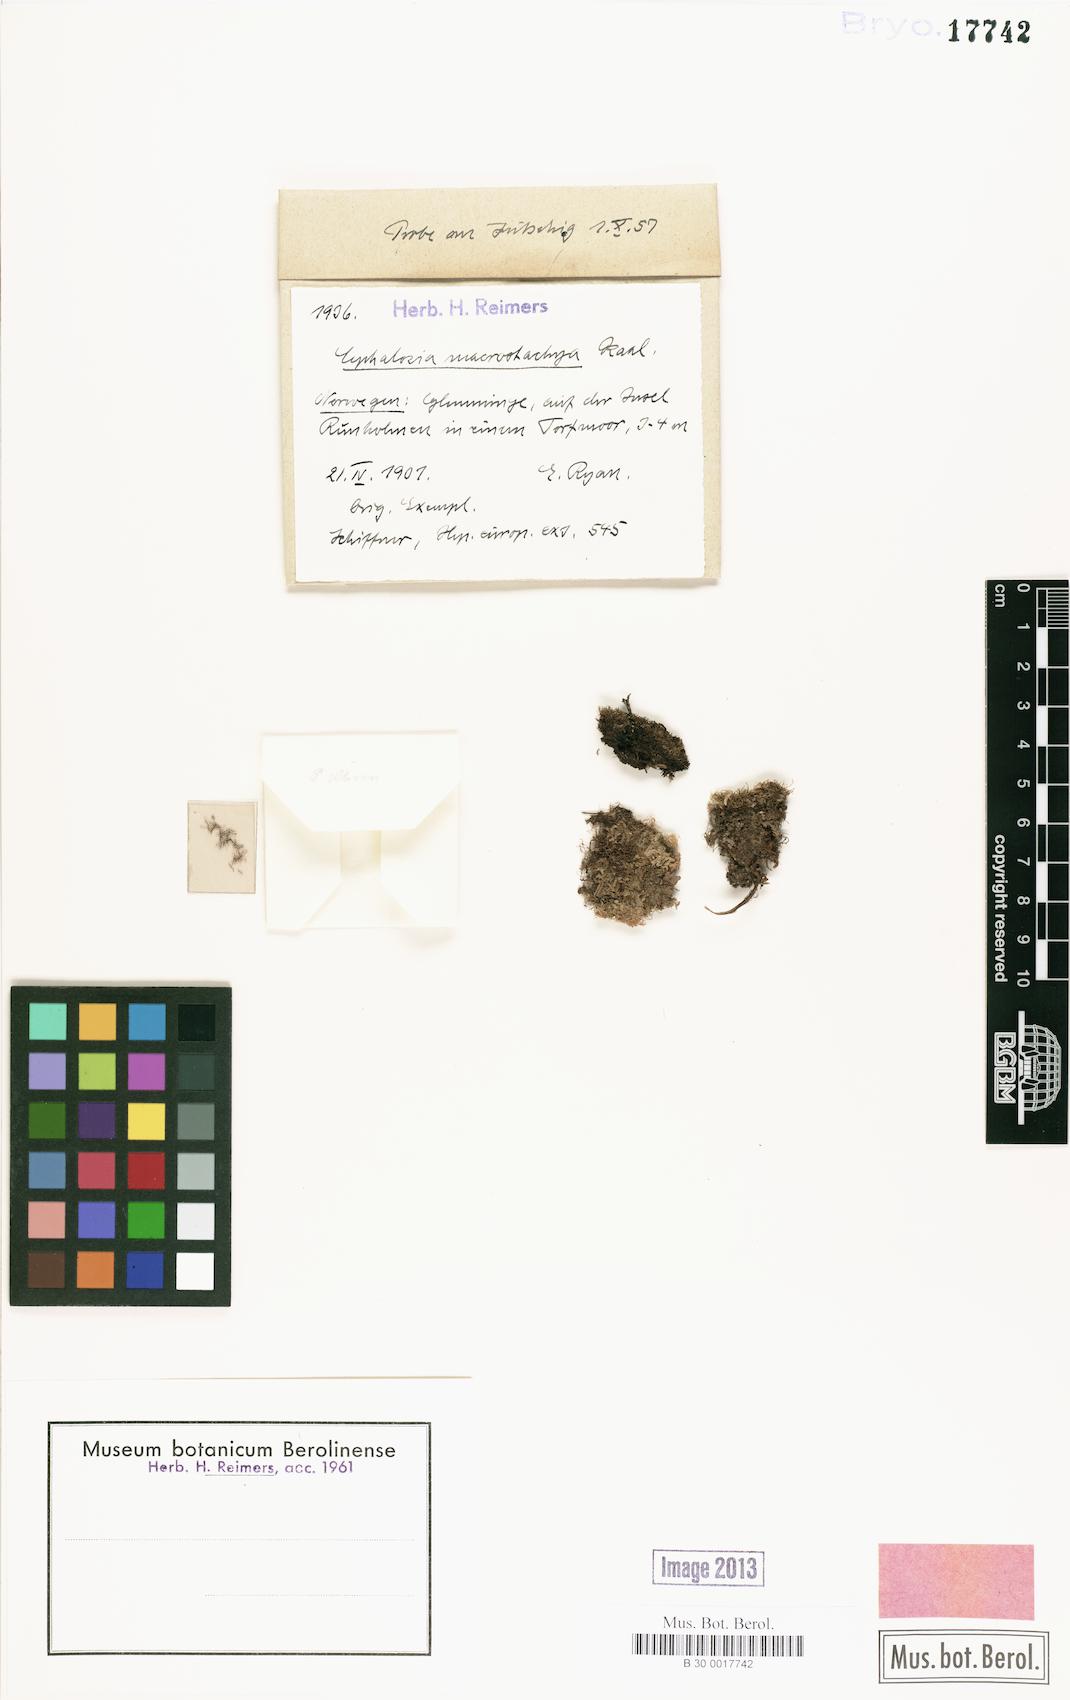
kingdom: Plantae
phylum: Marchantiophyta
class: Jungermanniopsida
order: Jungermanniales
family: Cephaloziaceae
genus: Fuscocephaloziopsis
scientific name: Fuscocephaloziopsis macrostachya
